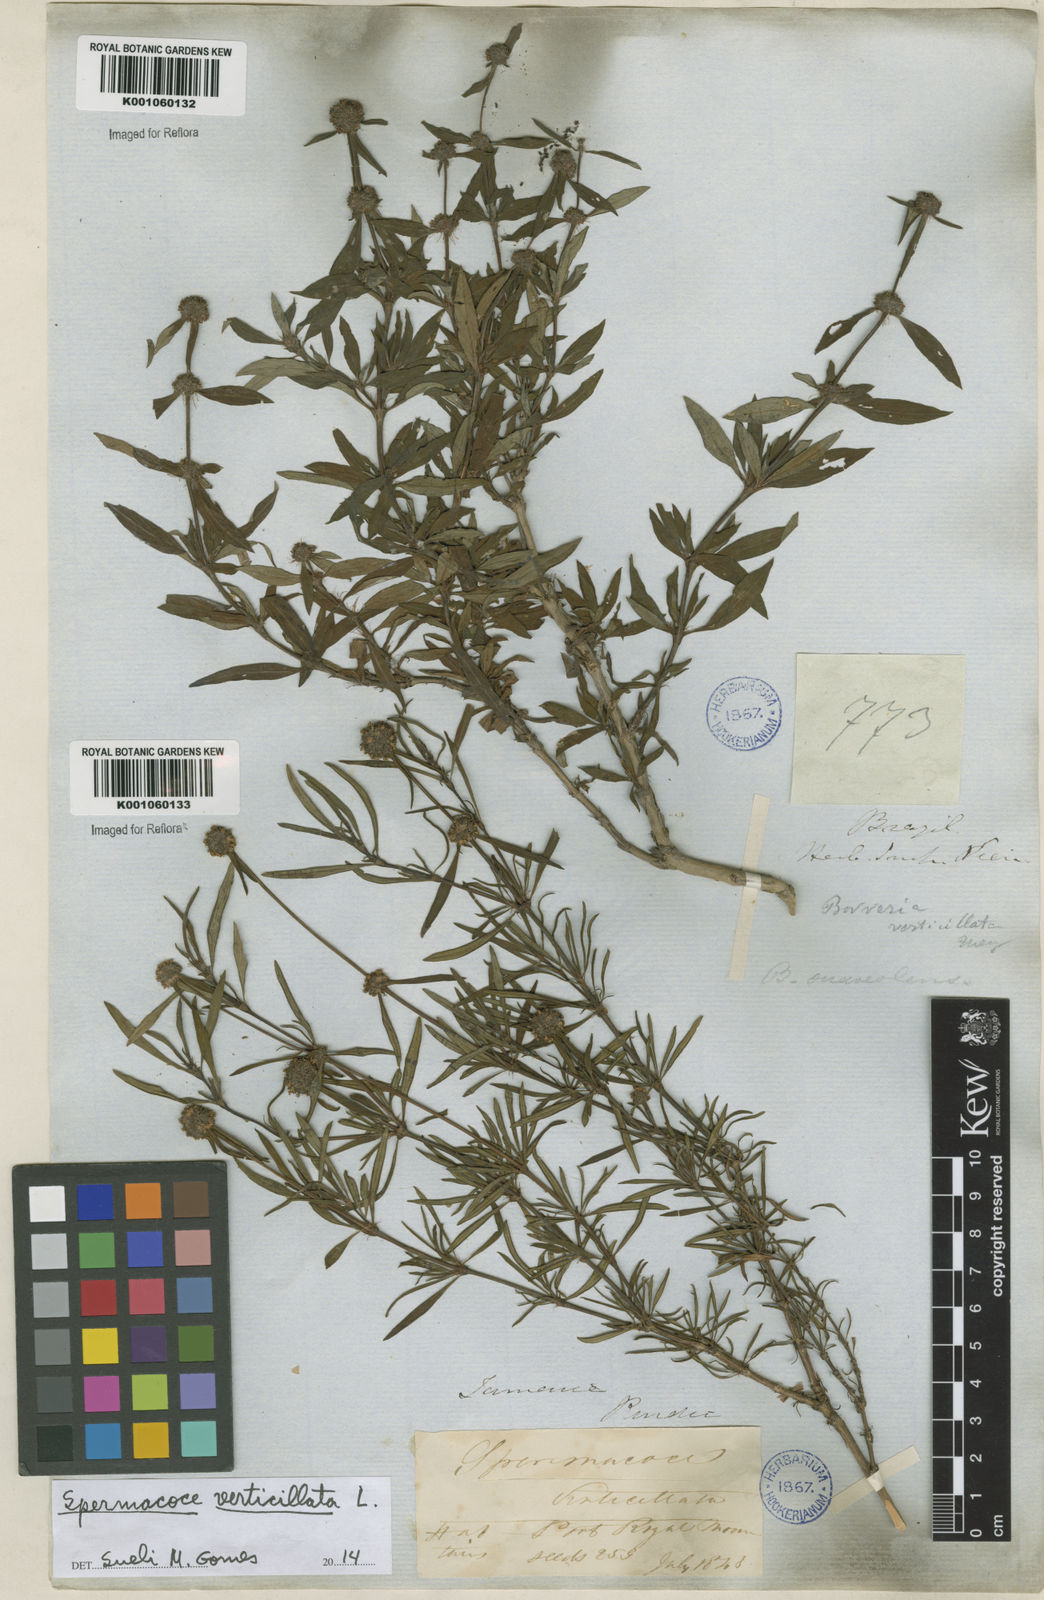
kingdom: Plantae
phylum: Tracheophyta
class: Magnoliopsida
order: Gentianales
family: Rubiaceae
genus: Spermacoce
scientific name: Spermacoce verticillata
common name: Shrubby false buttonweed
